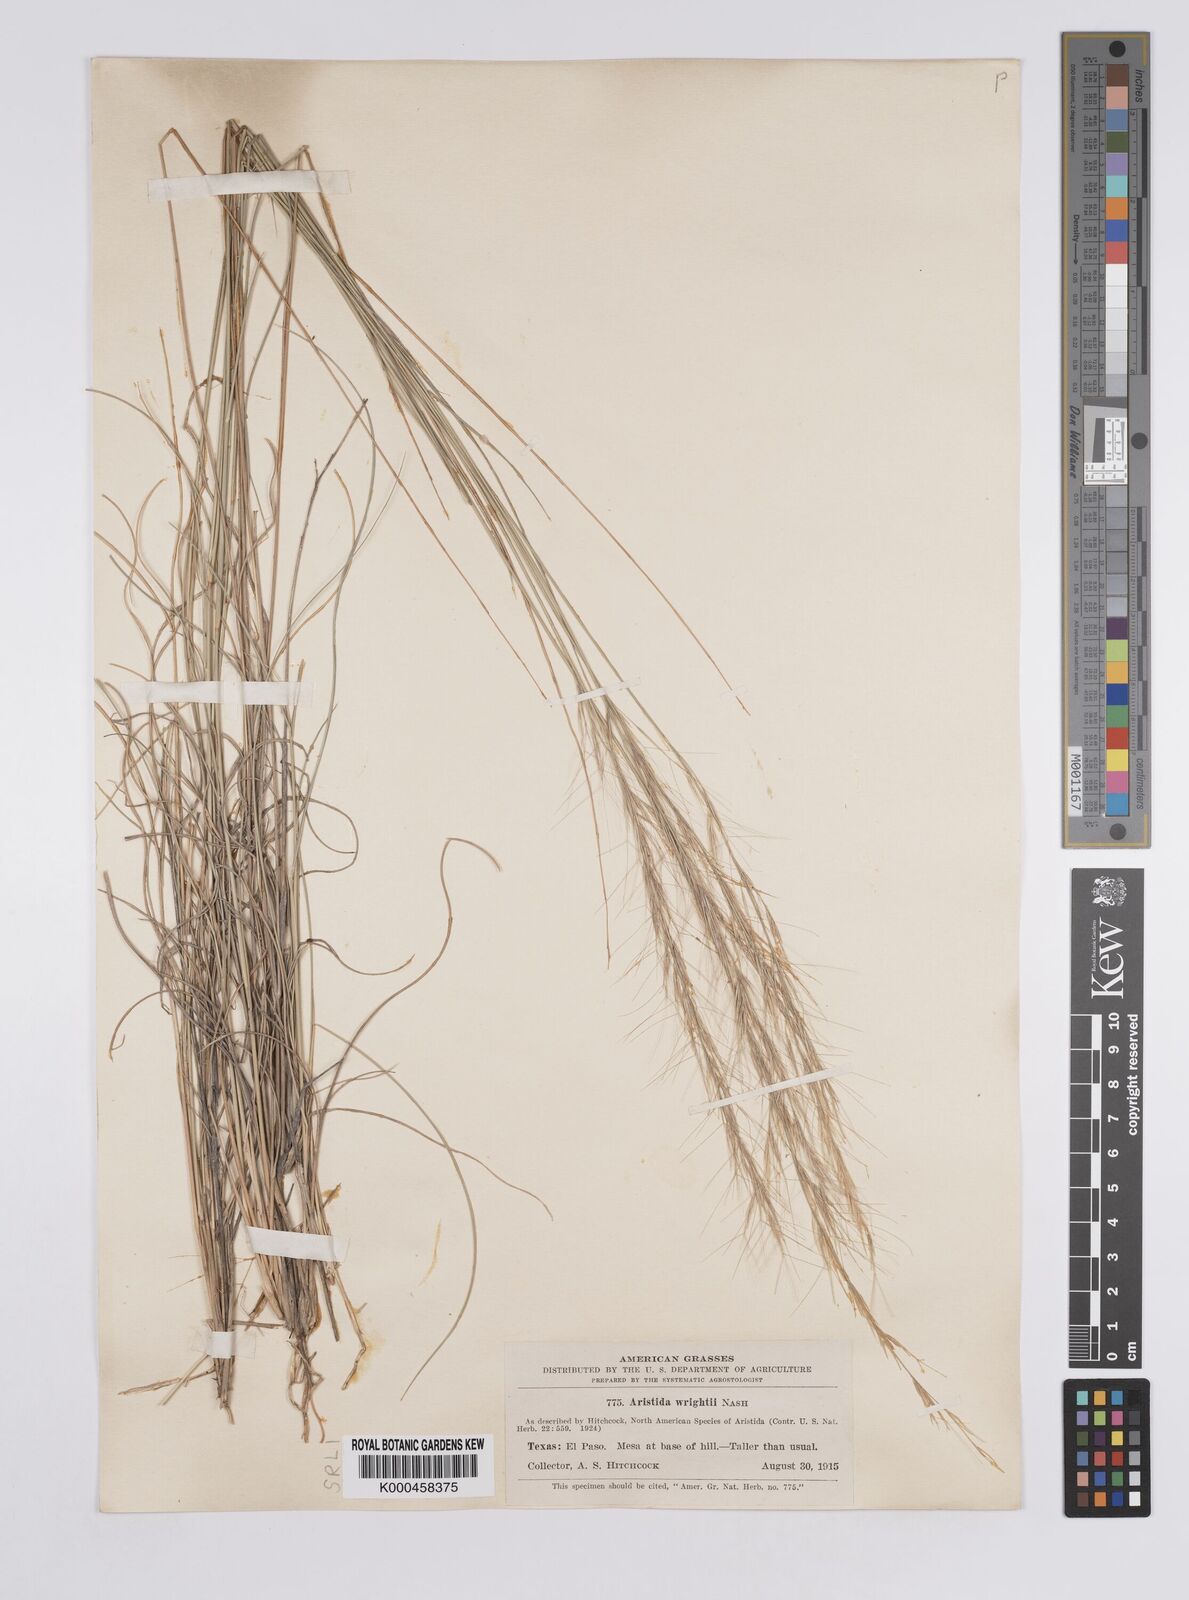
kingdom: Plantae
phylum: Tracheophyta
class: Liliopsida
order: Poales
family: Poaceae
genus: Aristida
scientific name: Aristida wrightii
